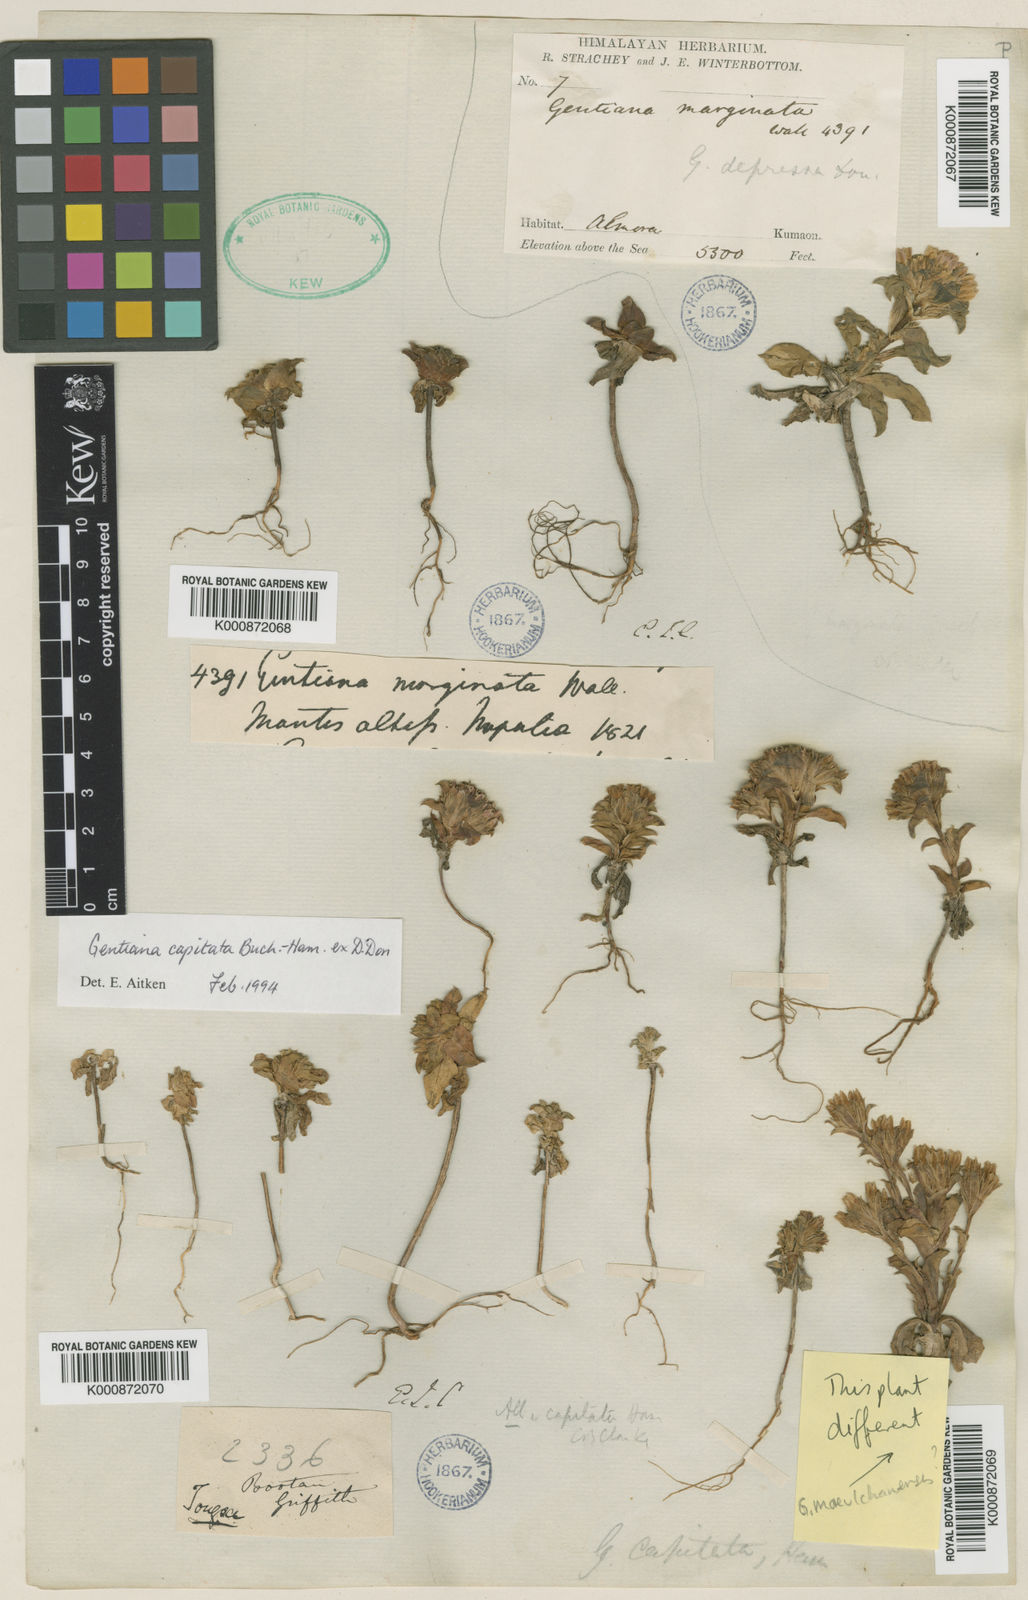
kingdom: Plantae
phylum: Tracheophyta
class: Magnoliopsida
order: Gentianales
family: Gentianaceae
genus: Gentiana
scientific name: Gentiana capitata
